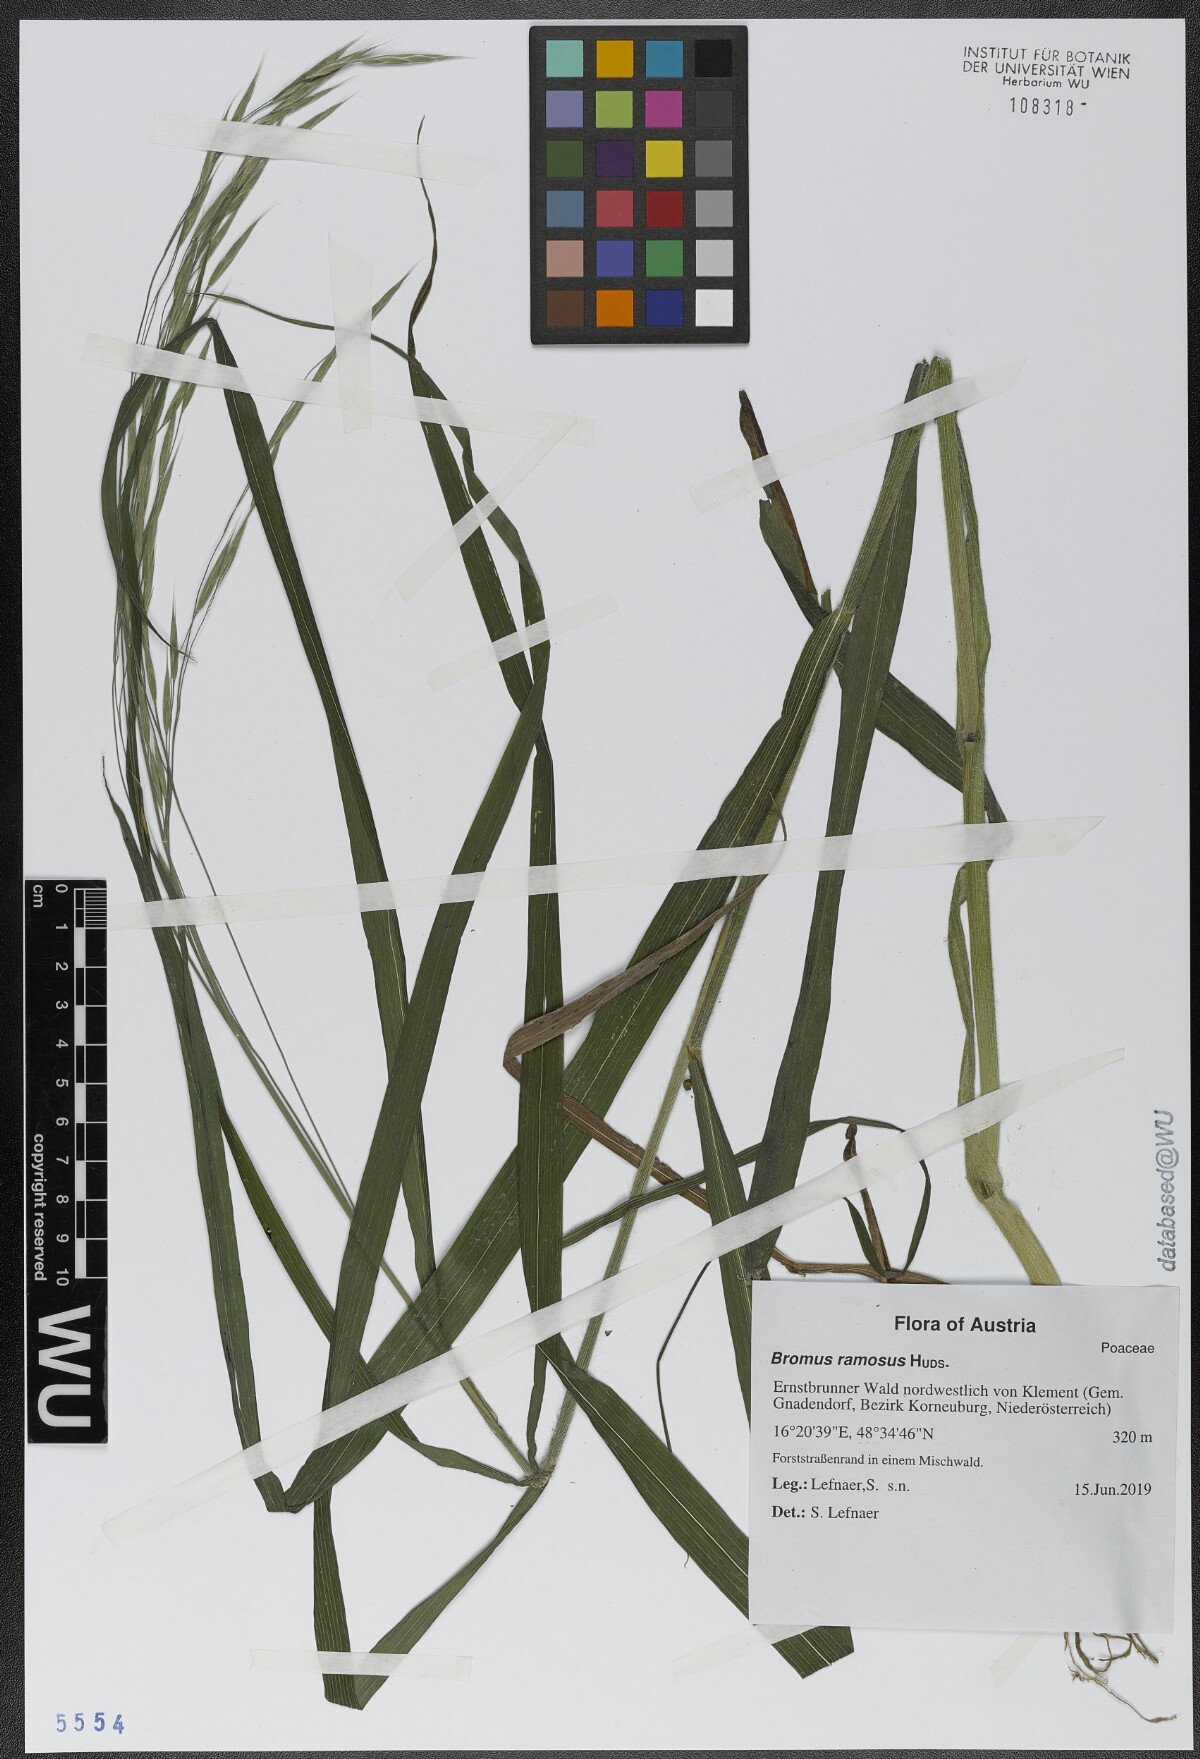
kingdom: Plantae
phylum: Tracheophyta
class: Liliopsida
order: Poales
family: Poaceae
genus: Bromus
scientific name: Bromus ramosus
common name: Hairy brome
